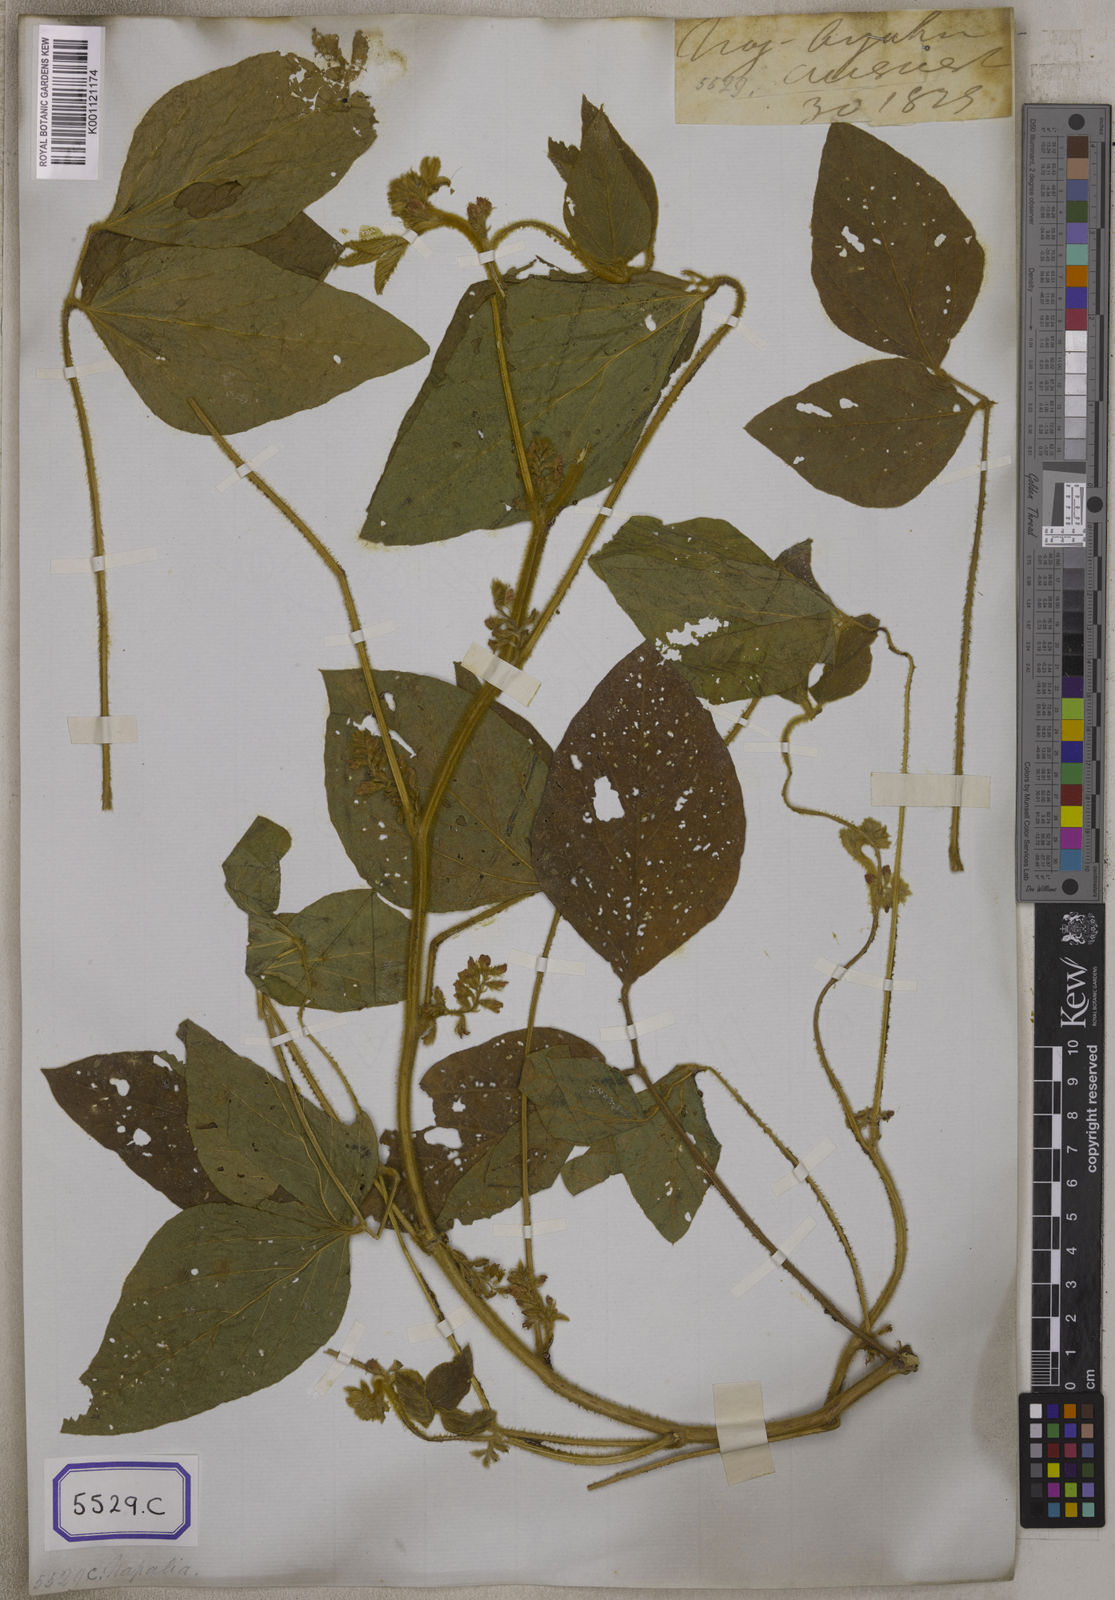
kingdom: Plantae
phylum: Tracheophyta
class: Magnoliopsida
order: Fabales
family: Fabaceae
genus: Glycine
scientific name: Glycine max
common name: Soya-bean
